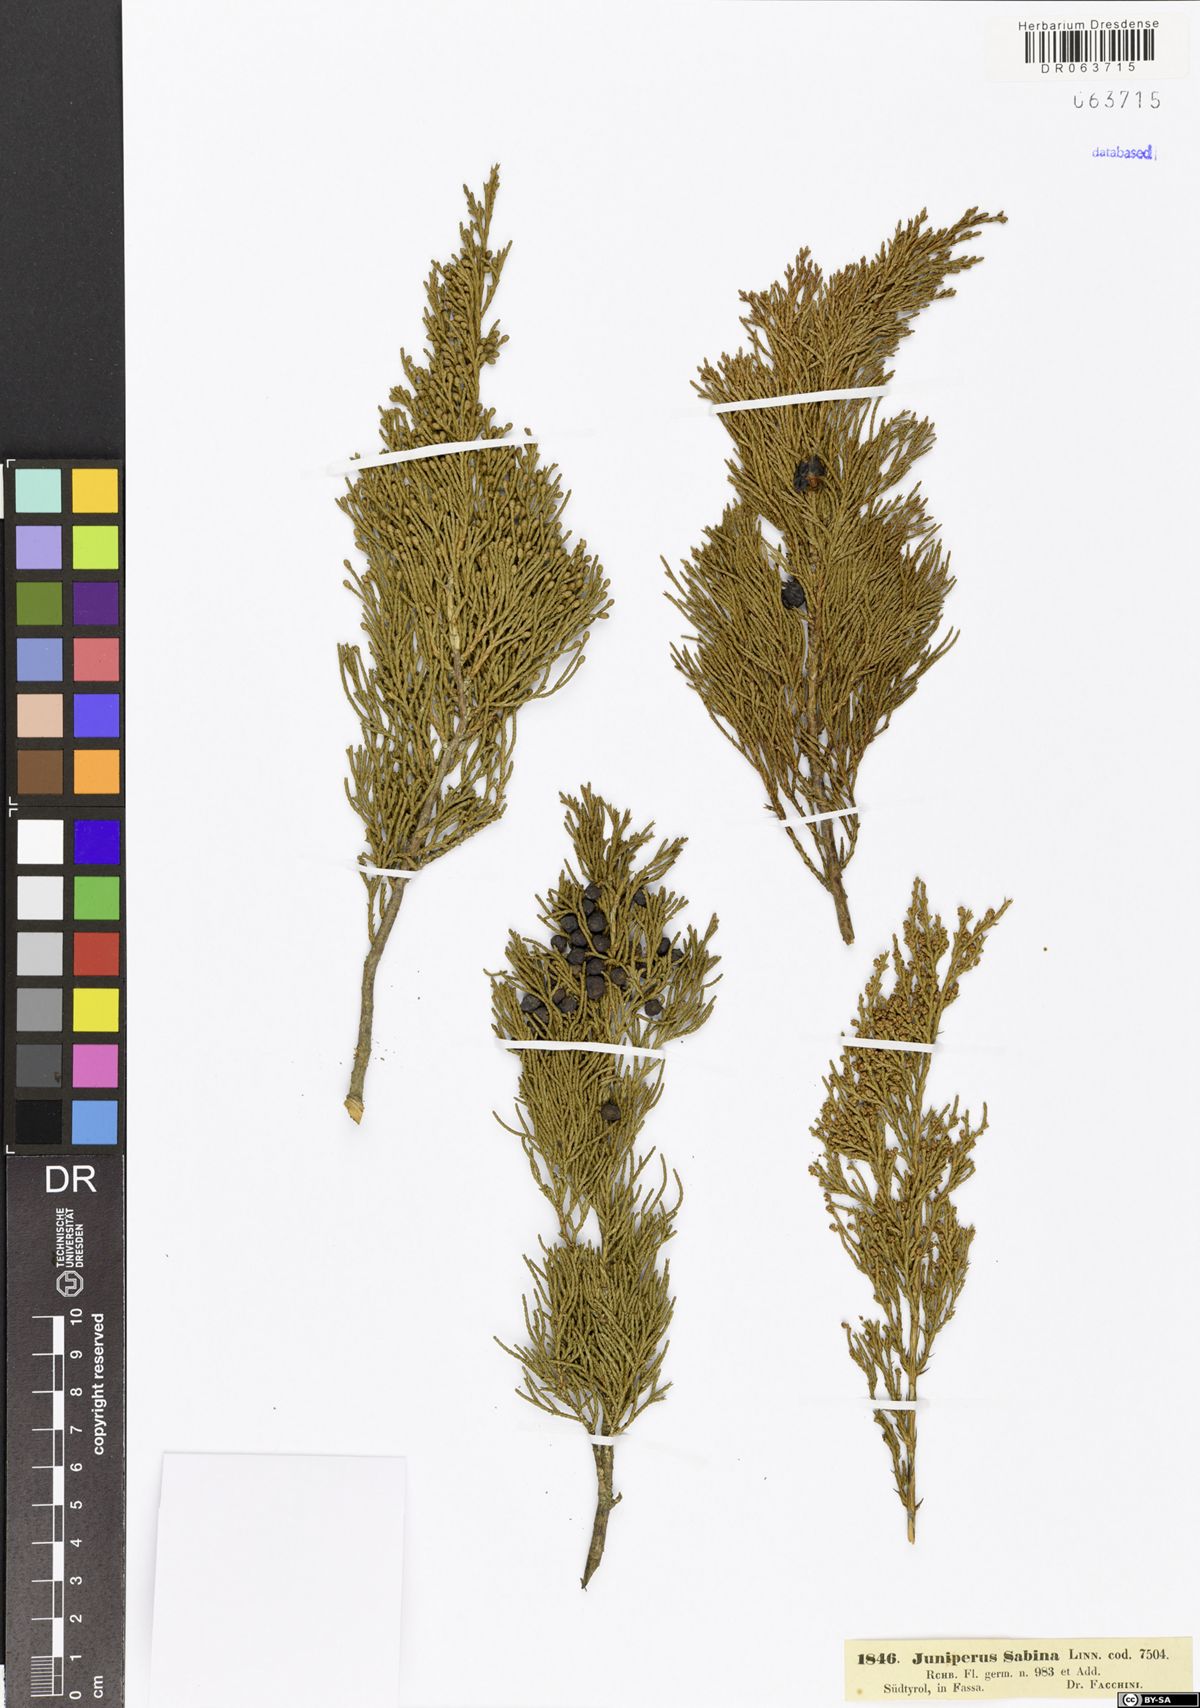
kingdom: Plantae
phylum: Tracheophyta
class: Pinopsida
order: Pinales
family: Cupressaceae
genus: Juniperus
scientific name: Juniperus sabina
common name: Savin
